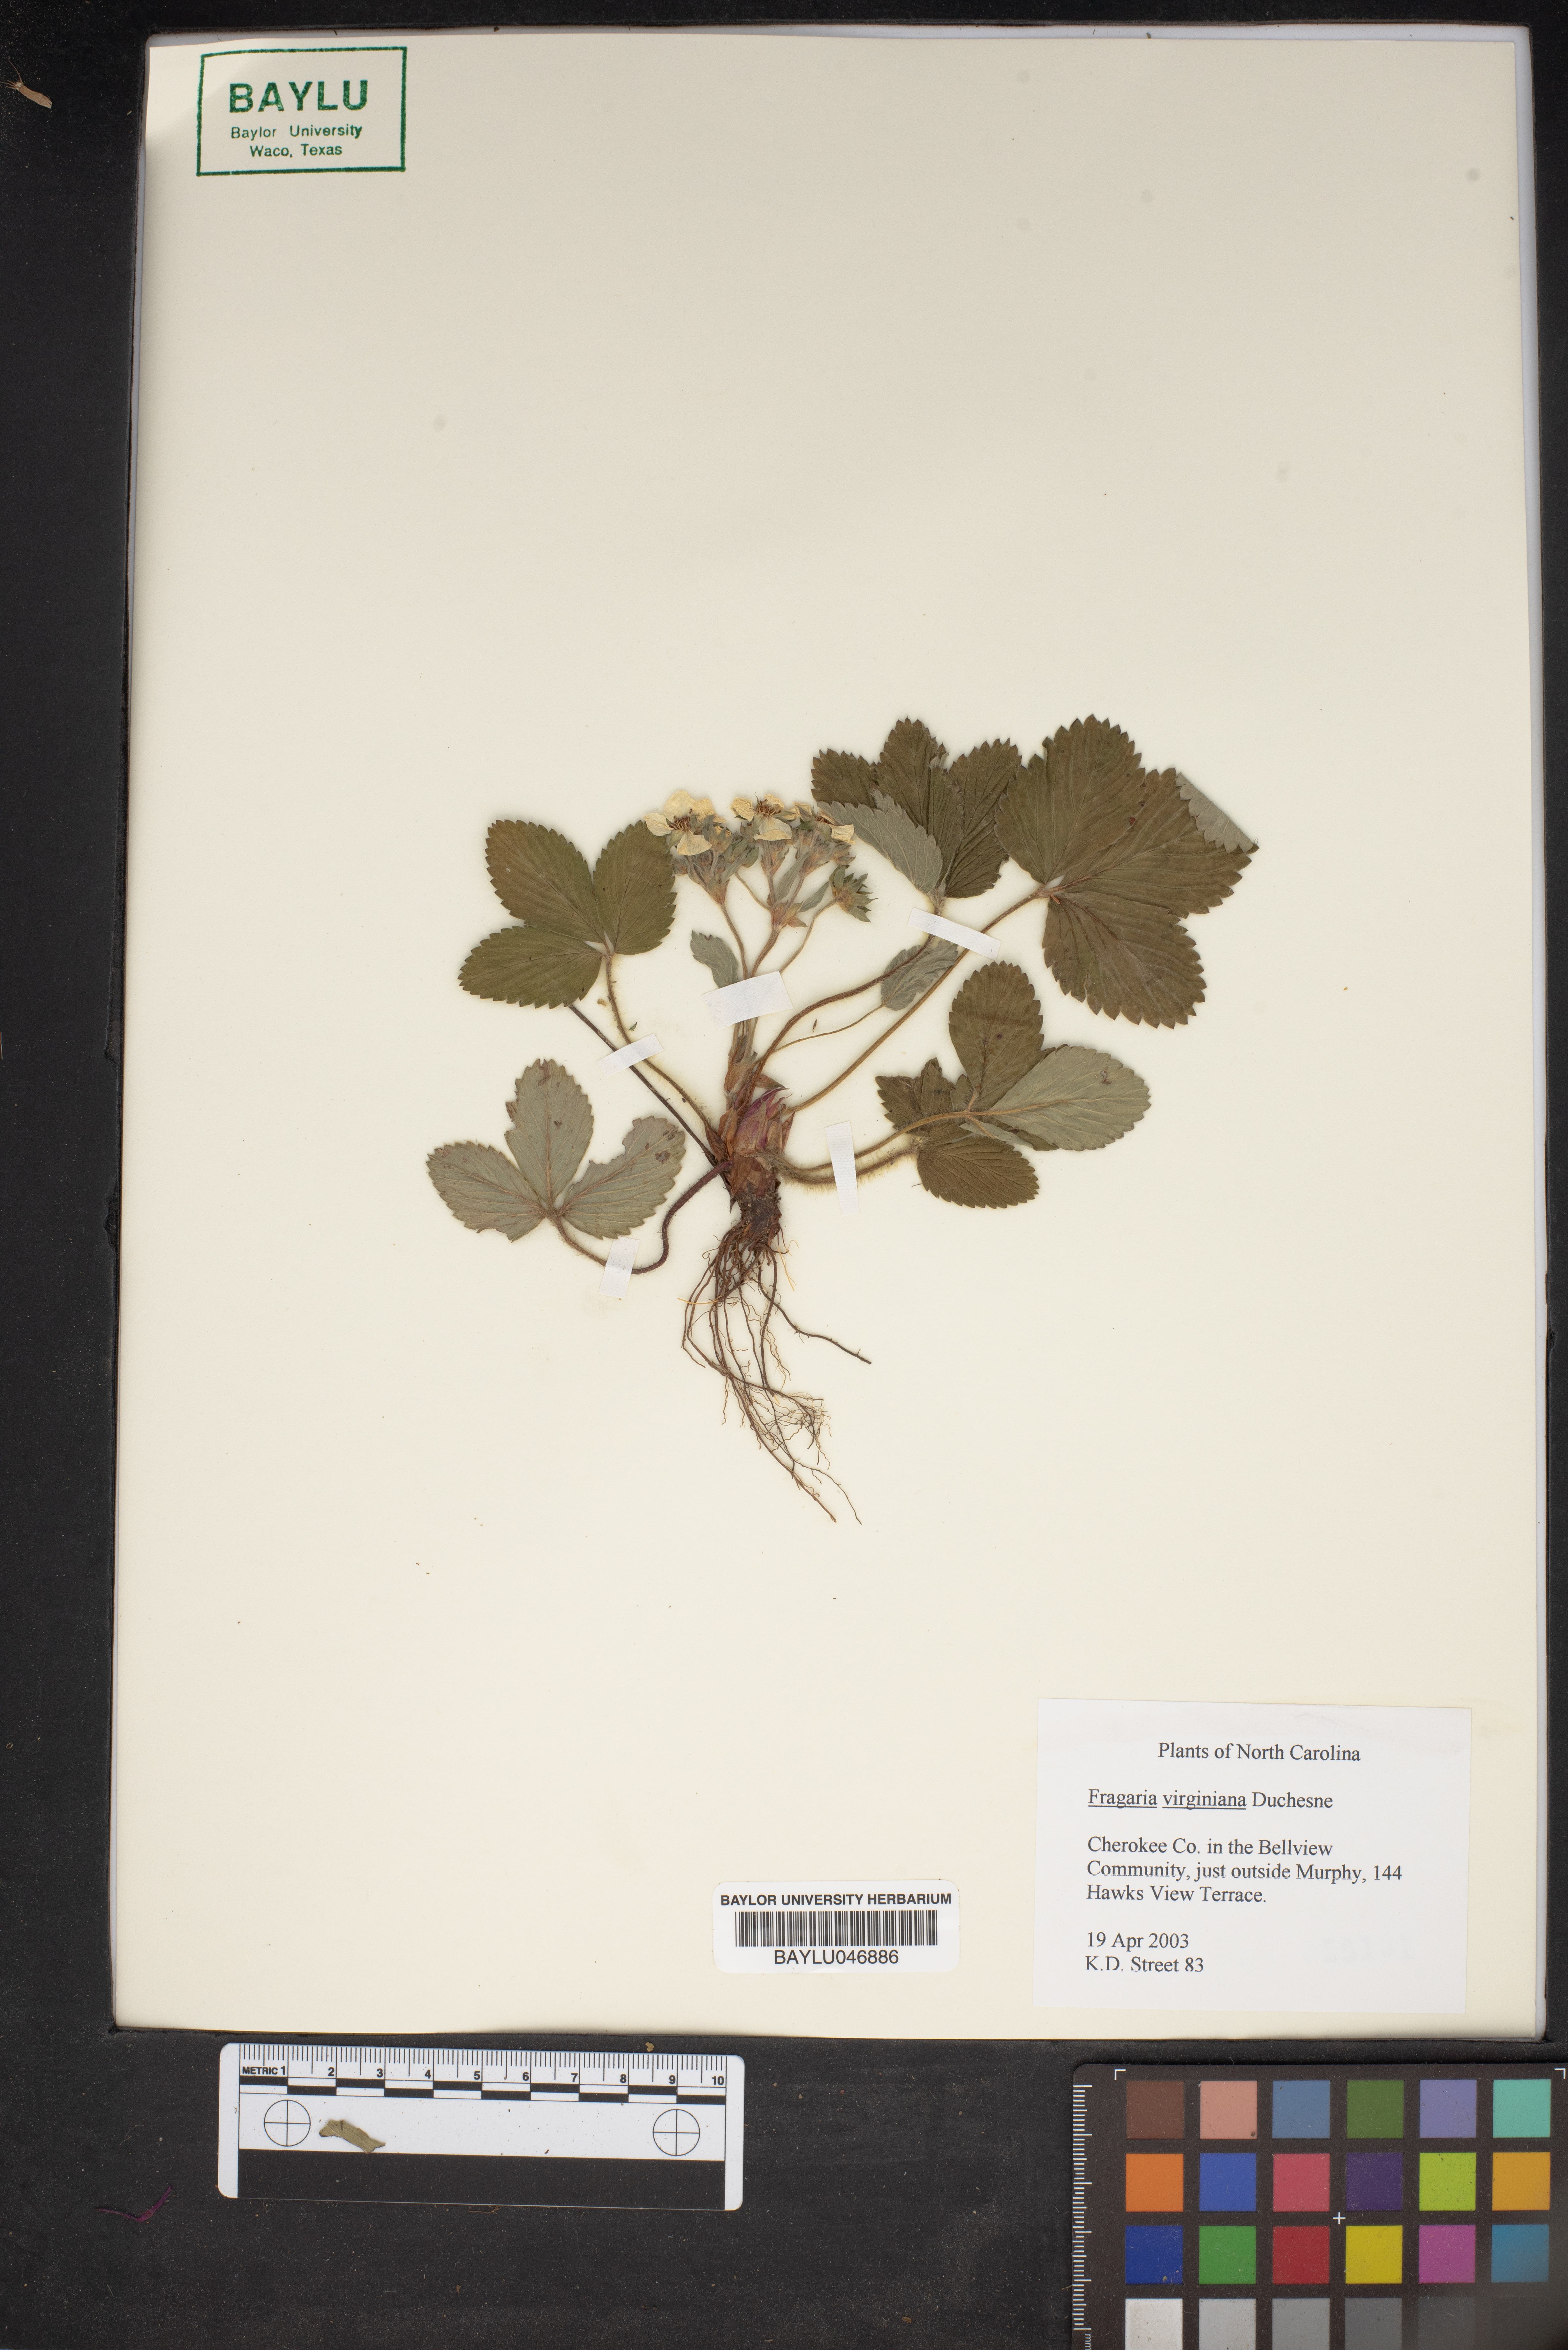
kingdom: Plantae
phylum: Tracheophyta
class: Magnoliopsida
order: Rosales
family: Rosaceae
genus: Fragaria
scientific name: Fragaria virginiana
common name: Thickleaved wild strawberry
